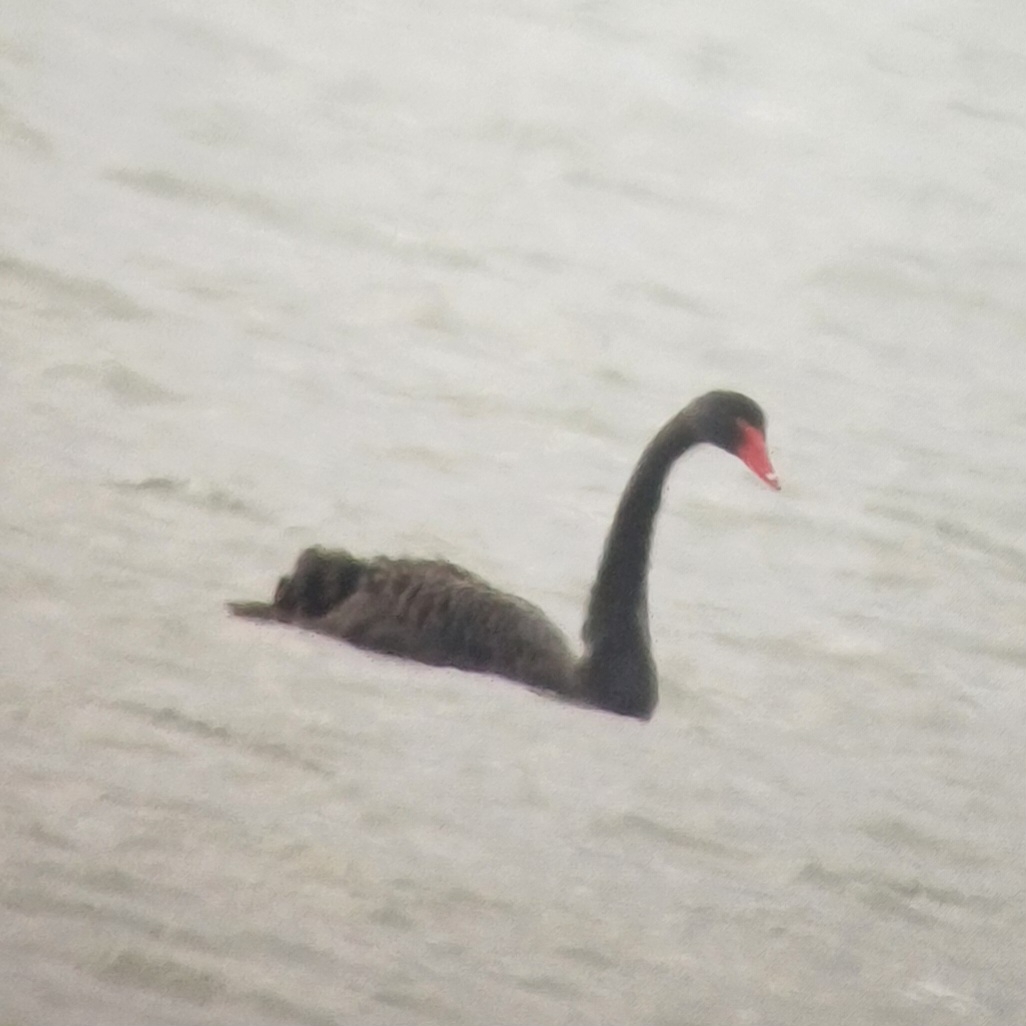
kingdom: Animalia
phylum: Chordata
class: Aves
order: Anseriformes
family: Anatidae
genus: Cygnus
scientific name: Cygnus atratus
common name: Sortsvane
